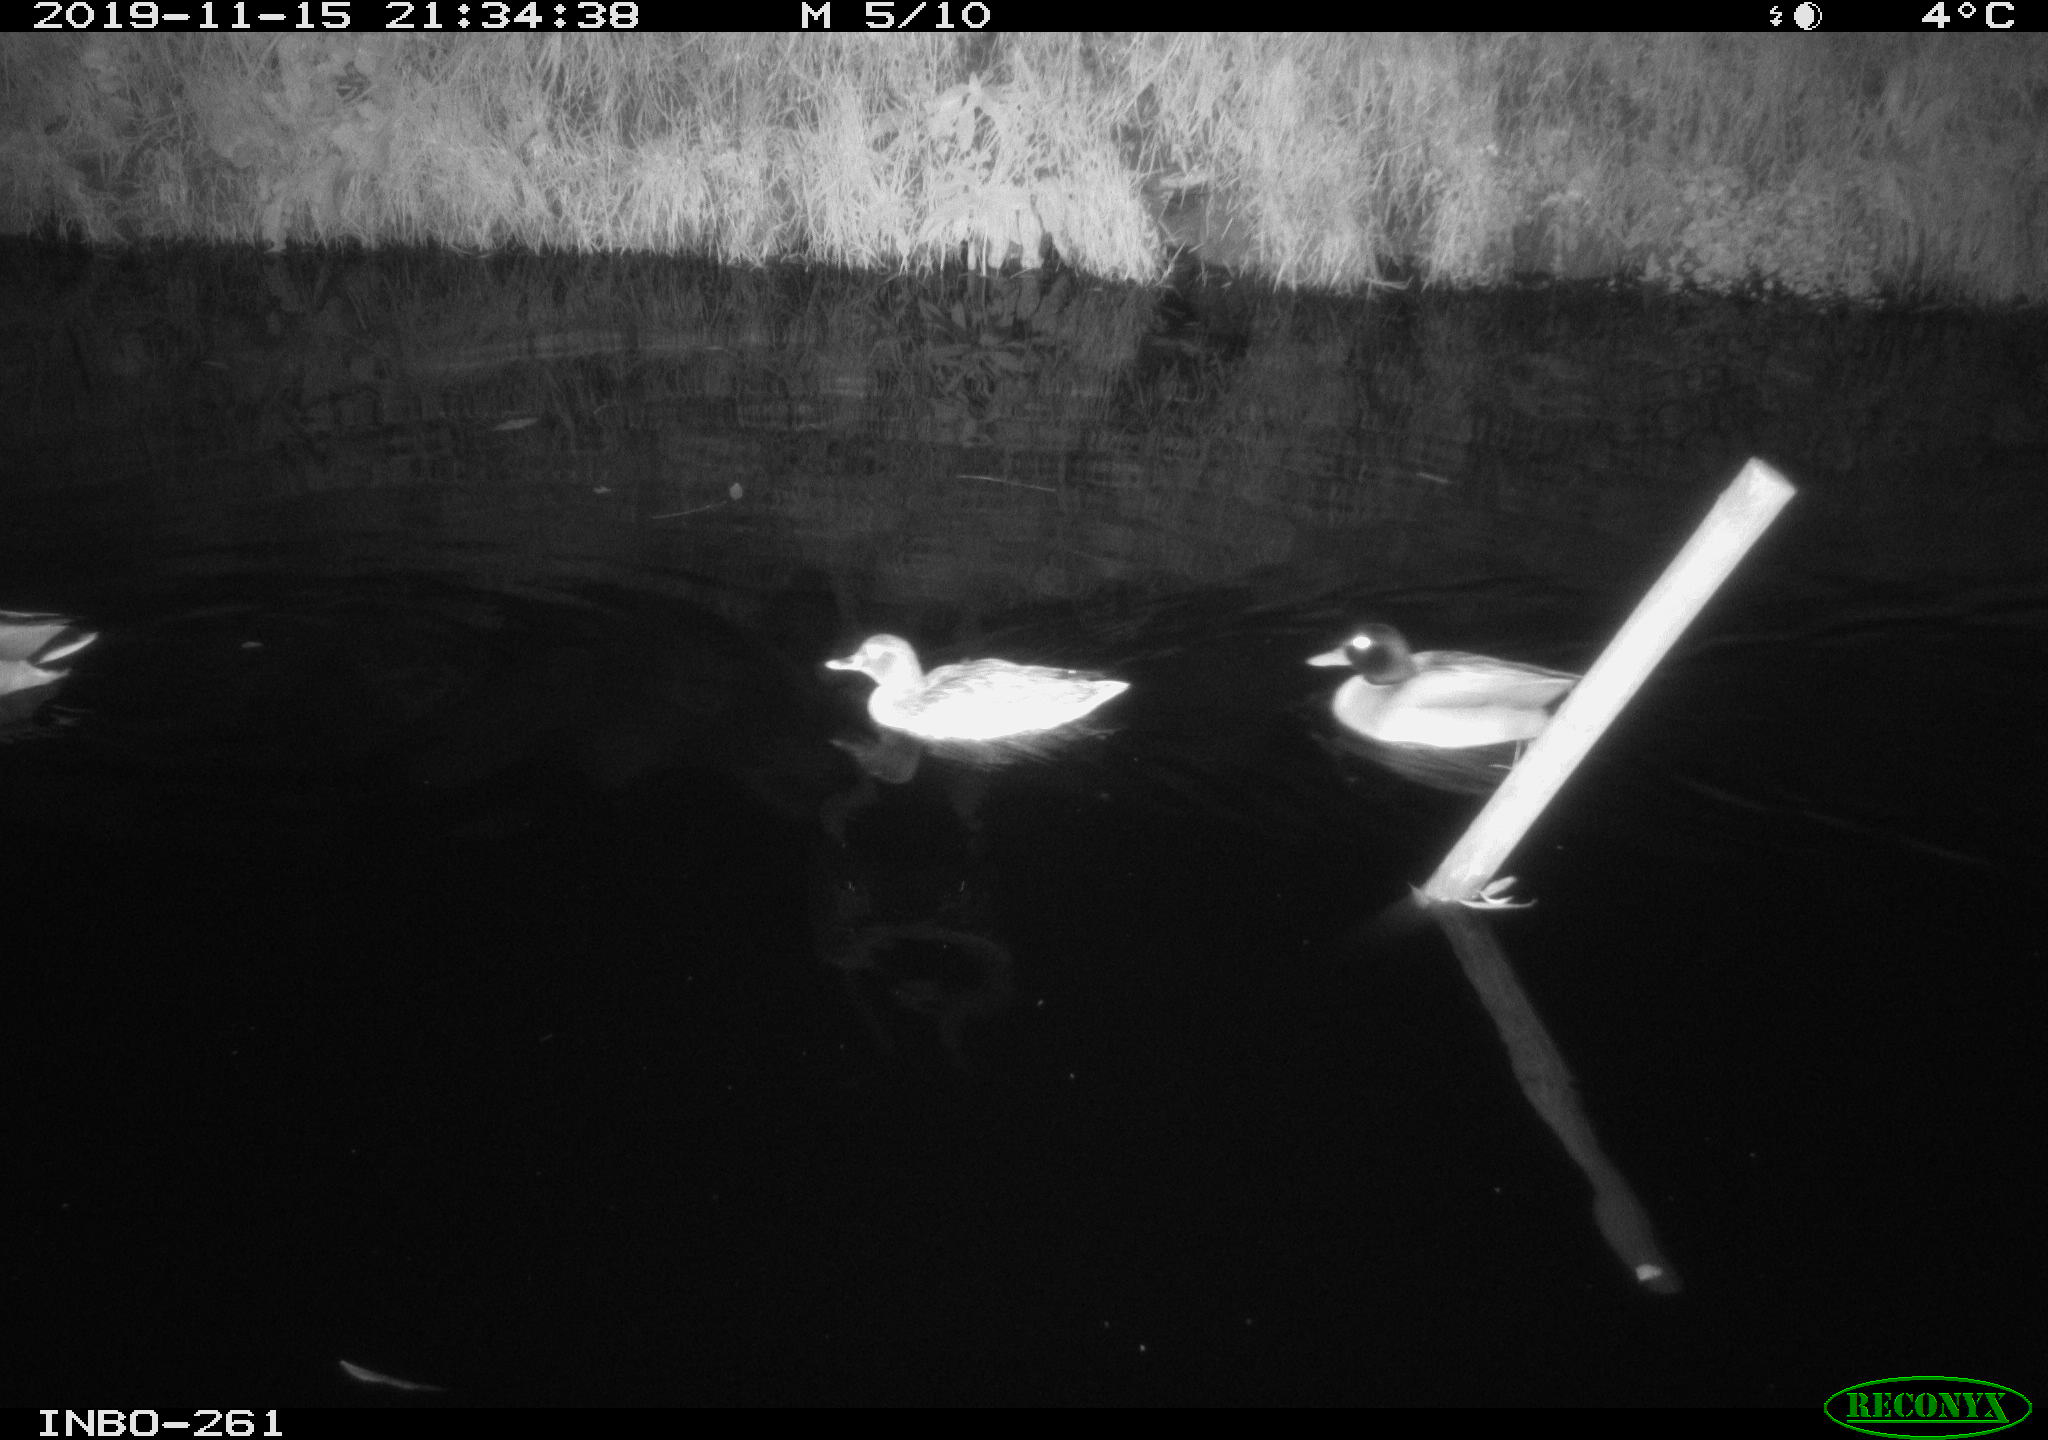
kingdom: Animalia
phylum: Chordata
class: Aves
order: Anseriformes
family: Anatidae
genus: Anas
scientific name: Anas platyrhynchos
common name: Mallard
